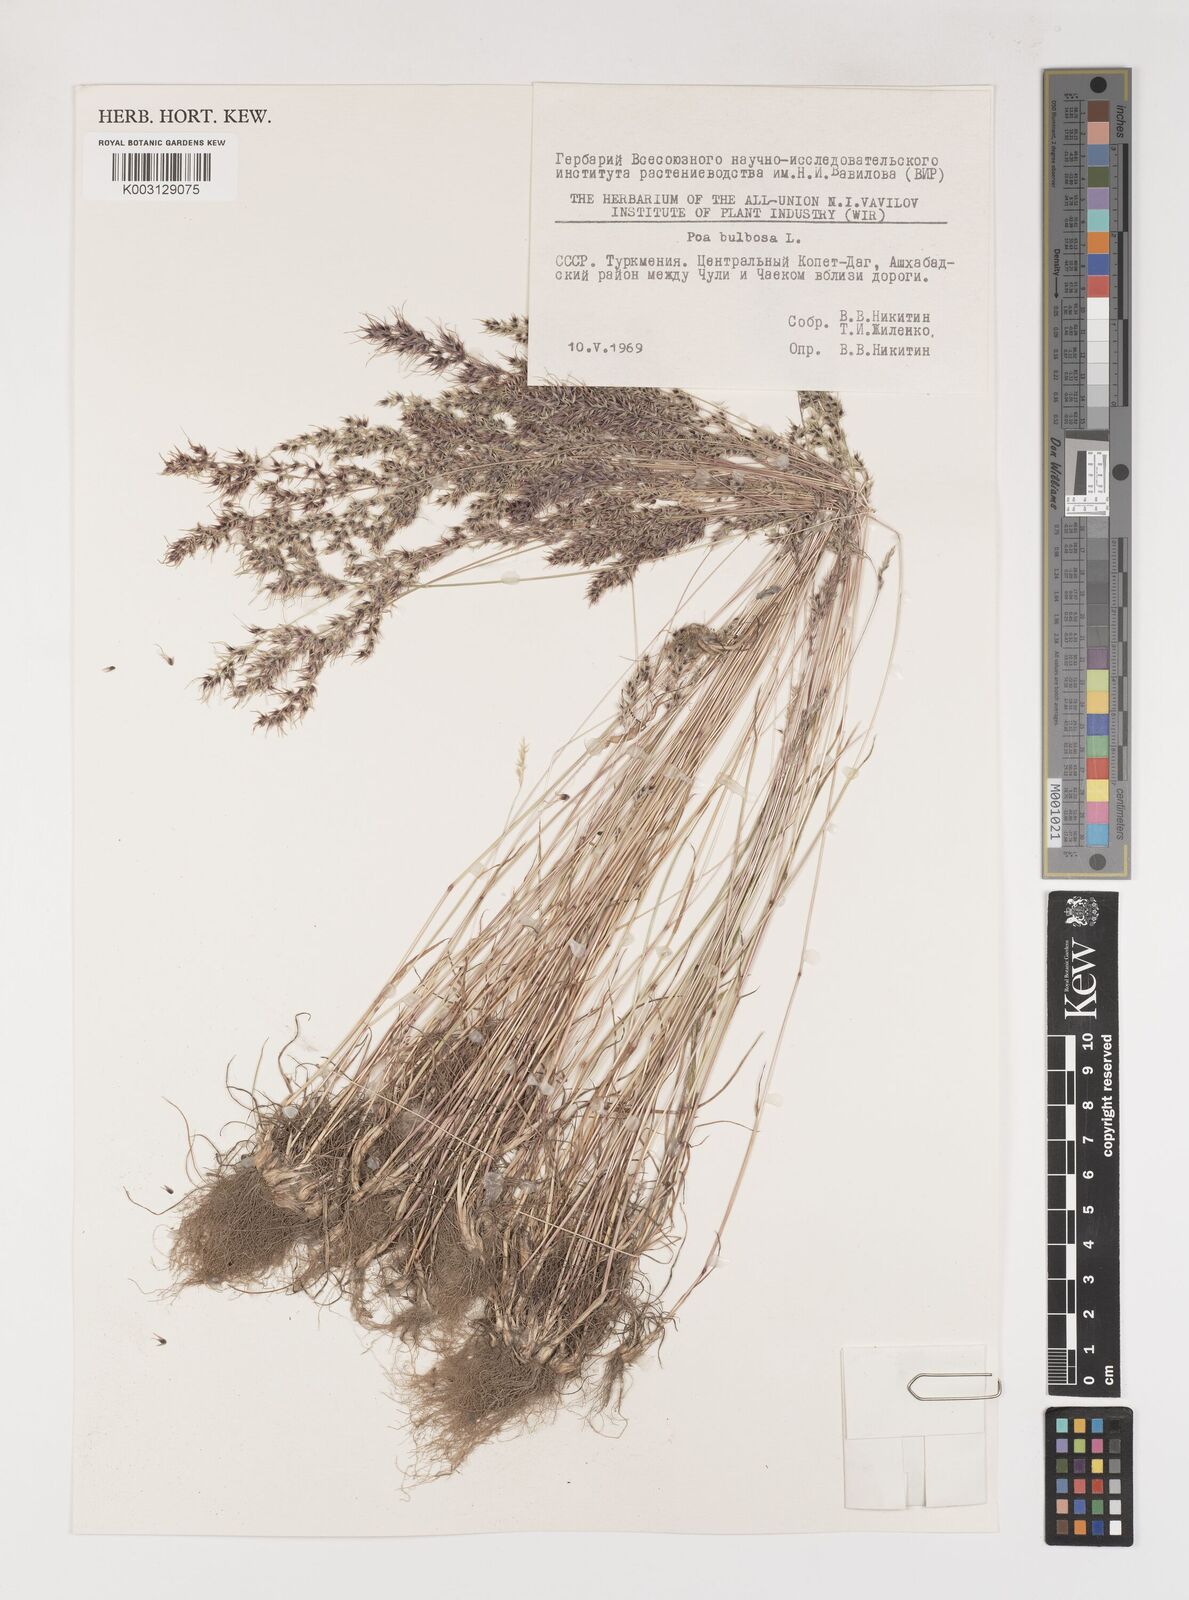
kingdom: Plantae
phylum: Tracheophyta
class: Liliopsida
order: Poales
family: Poaceae
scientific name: Poaceae
